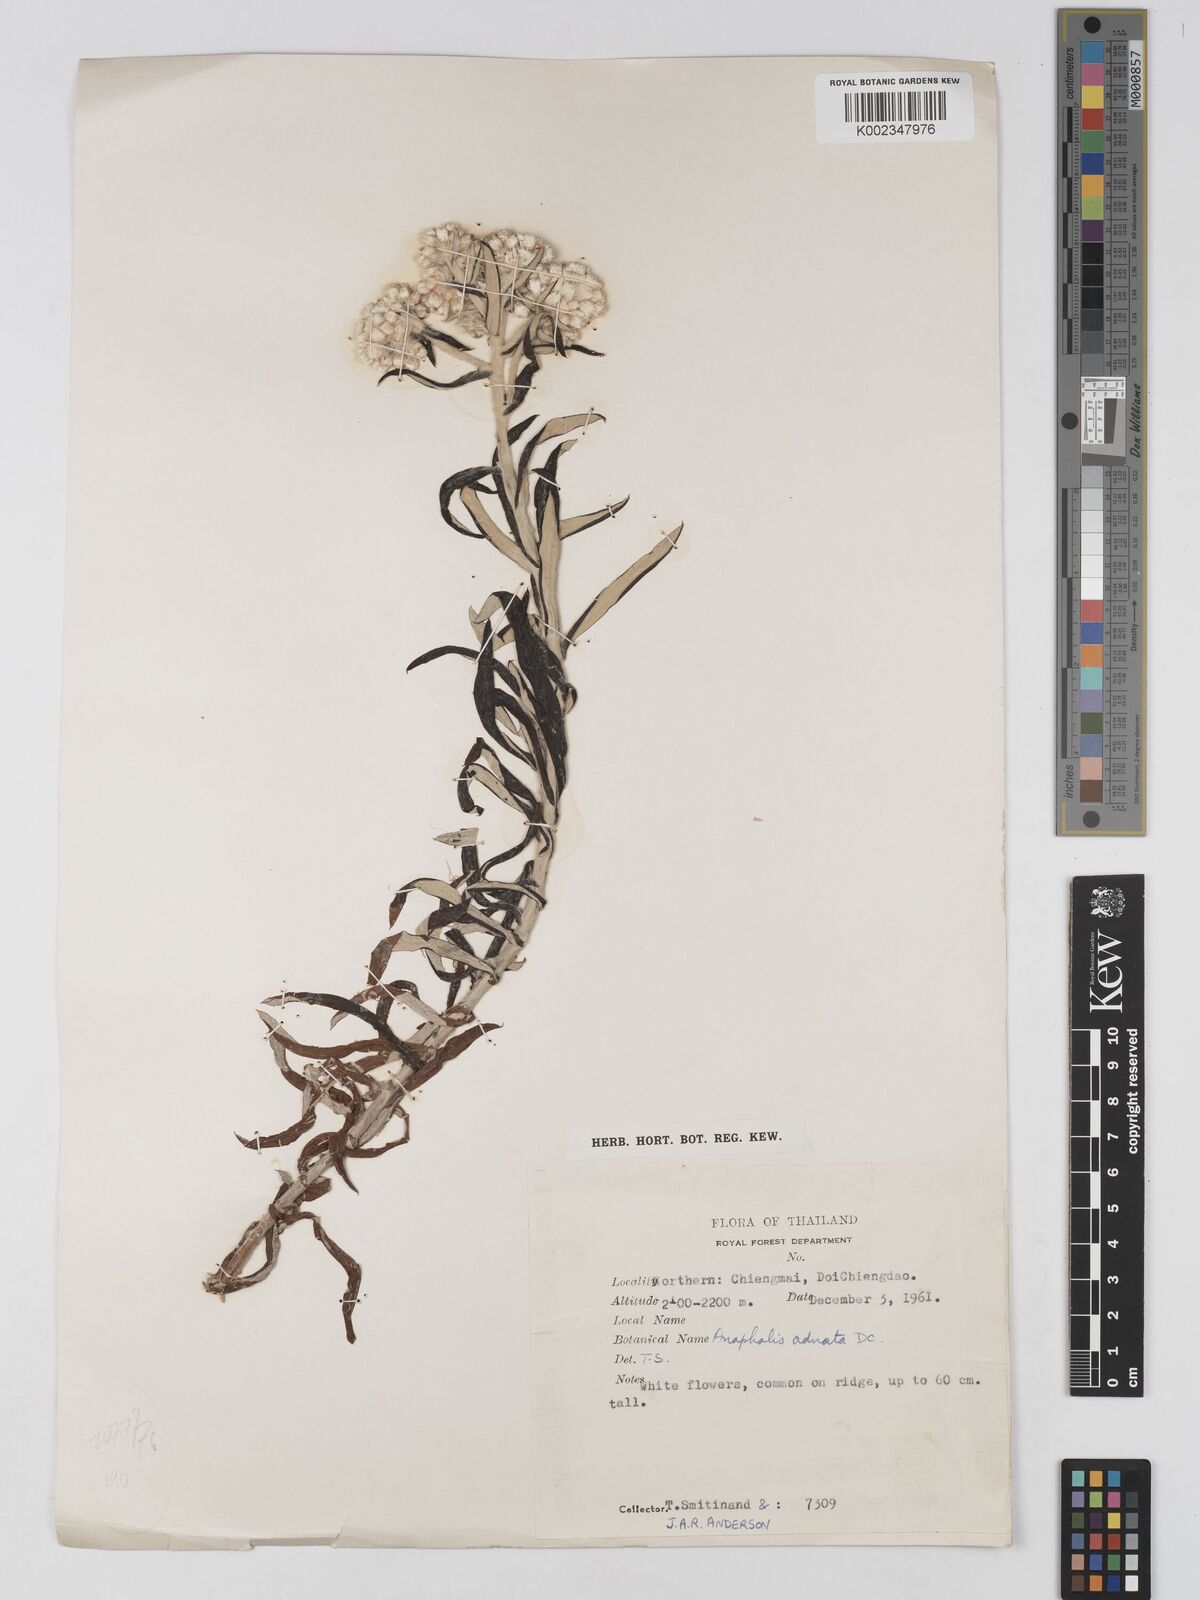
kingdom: Plantae
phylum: Tracheophyta
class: Magnoliopsida
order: Asterales
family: Asteraceae
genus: Anaphalis
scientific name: Anaphalis margaritacea
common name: Pearly everlasting
